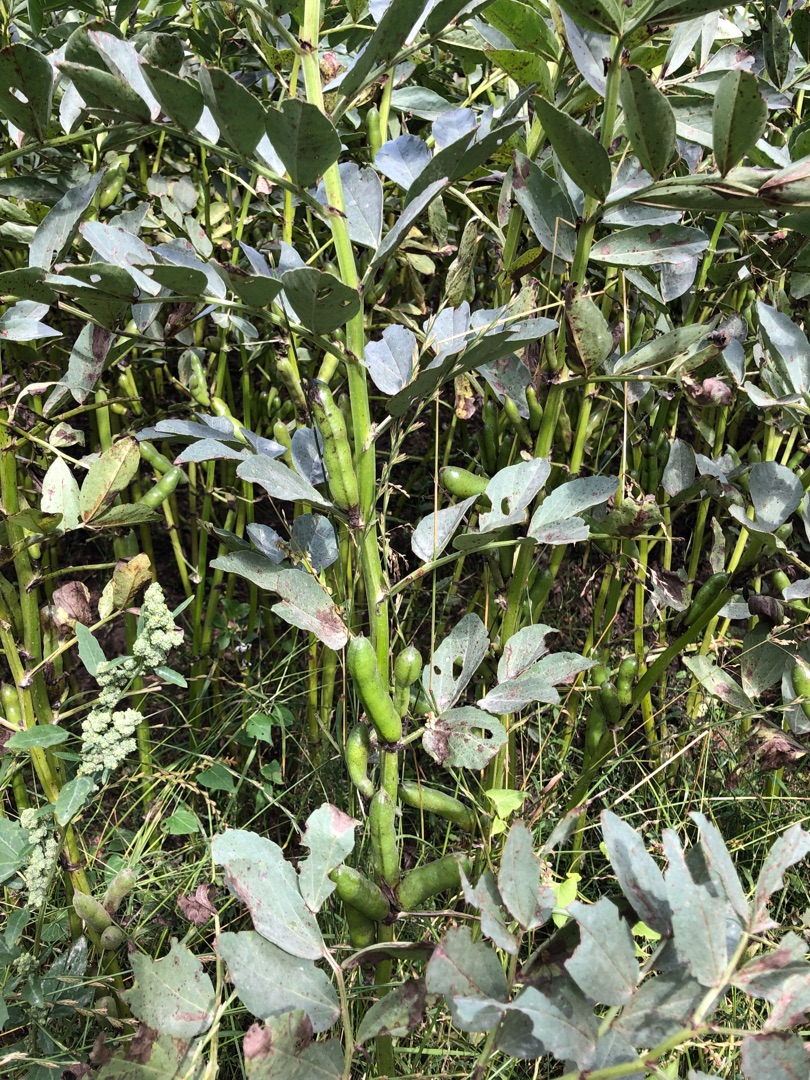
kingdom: Plantae
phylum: Tracheophyta
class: Magnoliopsida
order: Fabales
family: Fabaceae
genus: Vicia
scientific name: Vicia faba
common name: Hestebønne
